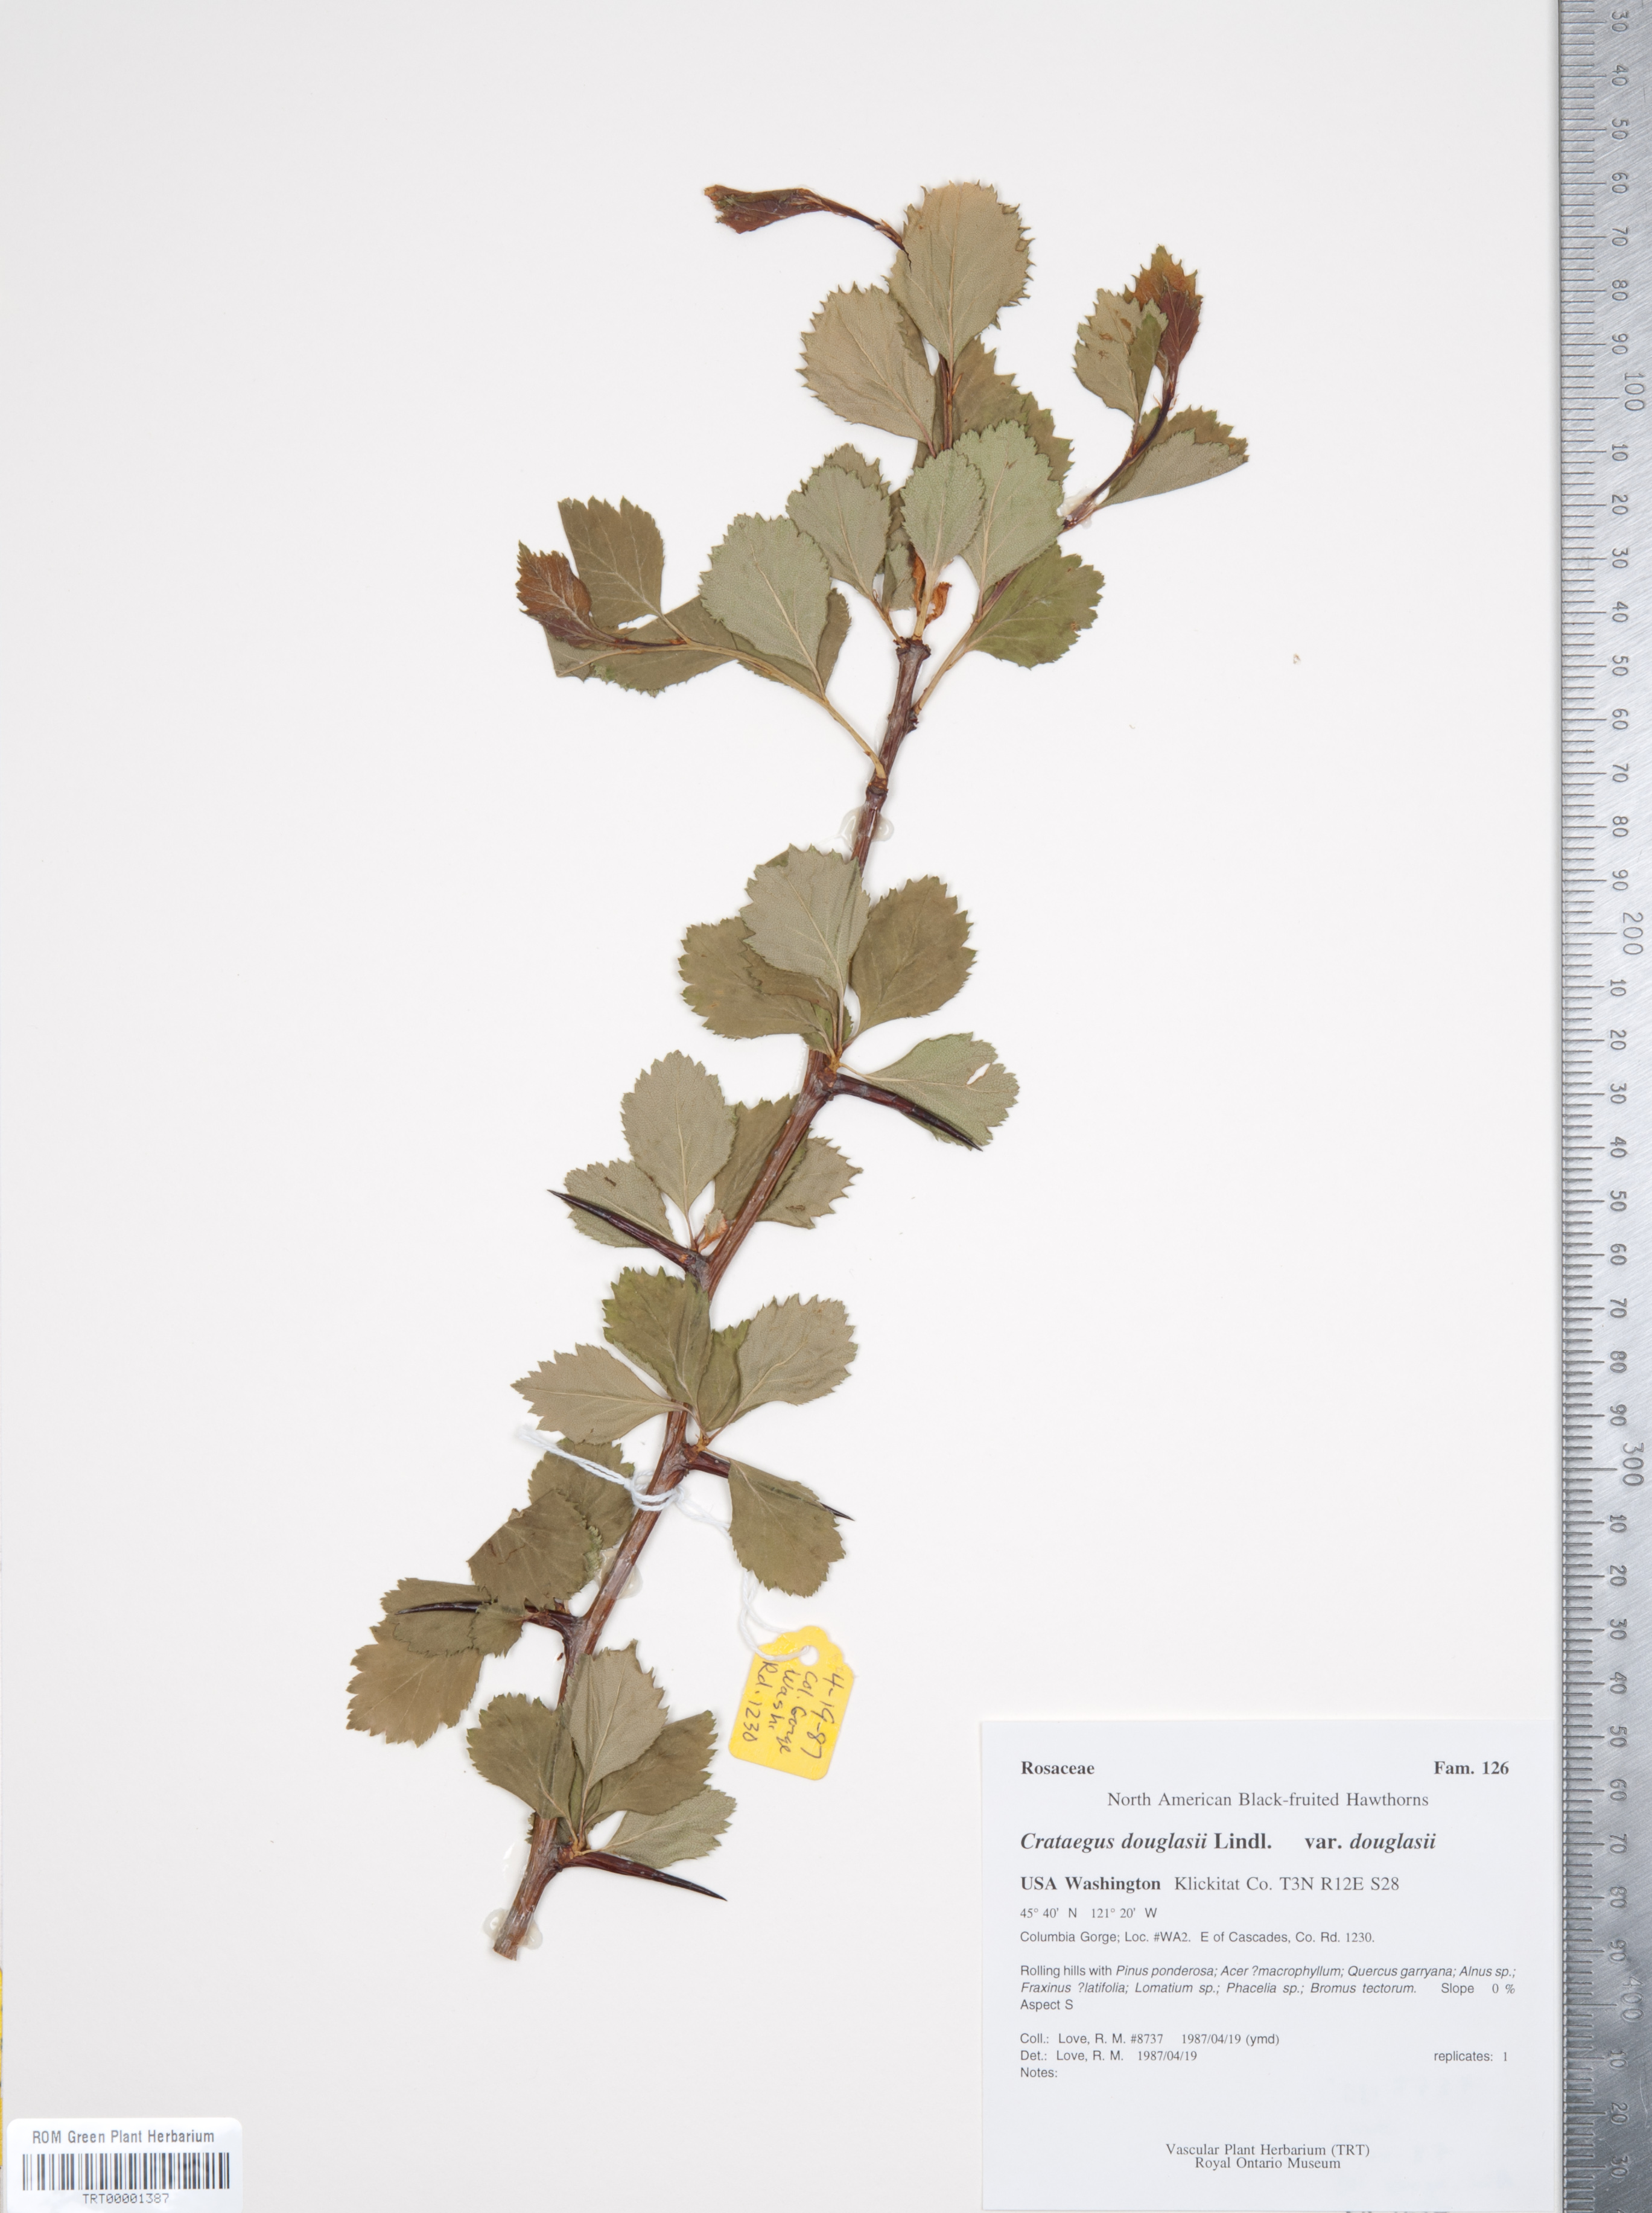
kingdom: Plantae
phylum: Tracheophyta
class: Magnoliopsida
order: Rosales
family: Rosaceae
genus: Crataegus
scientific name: Crataegus douglasii
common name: Black hawthorn
